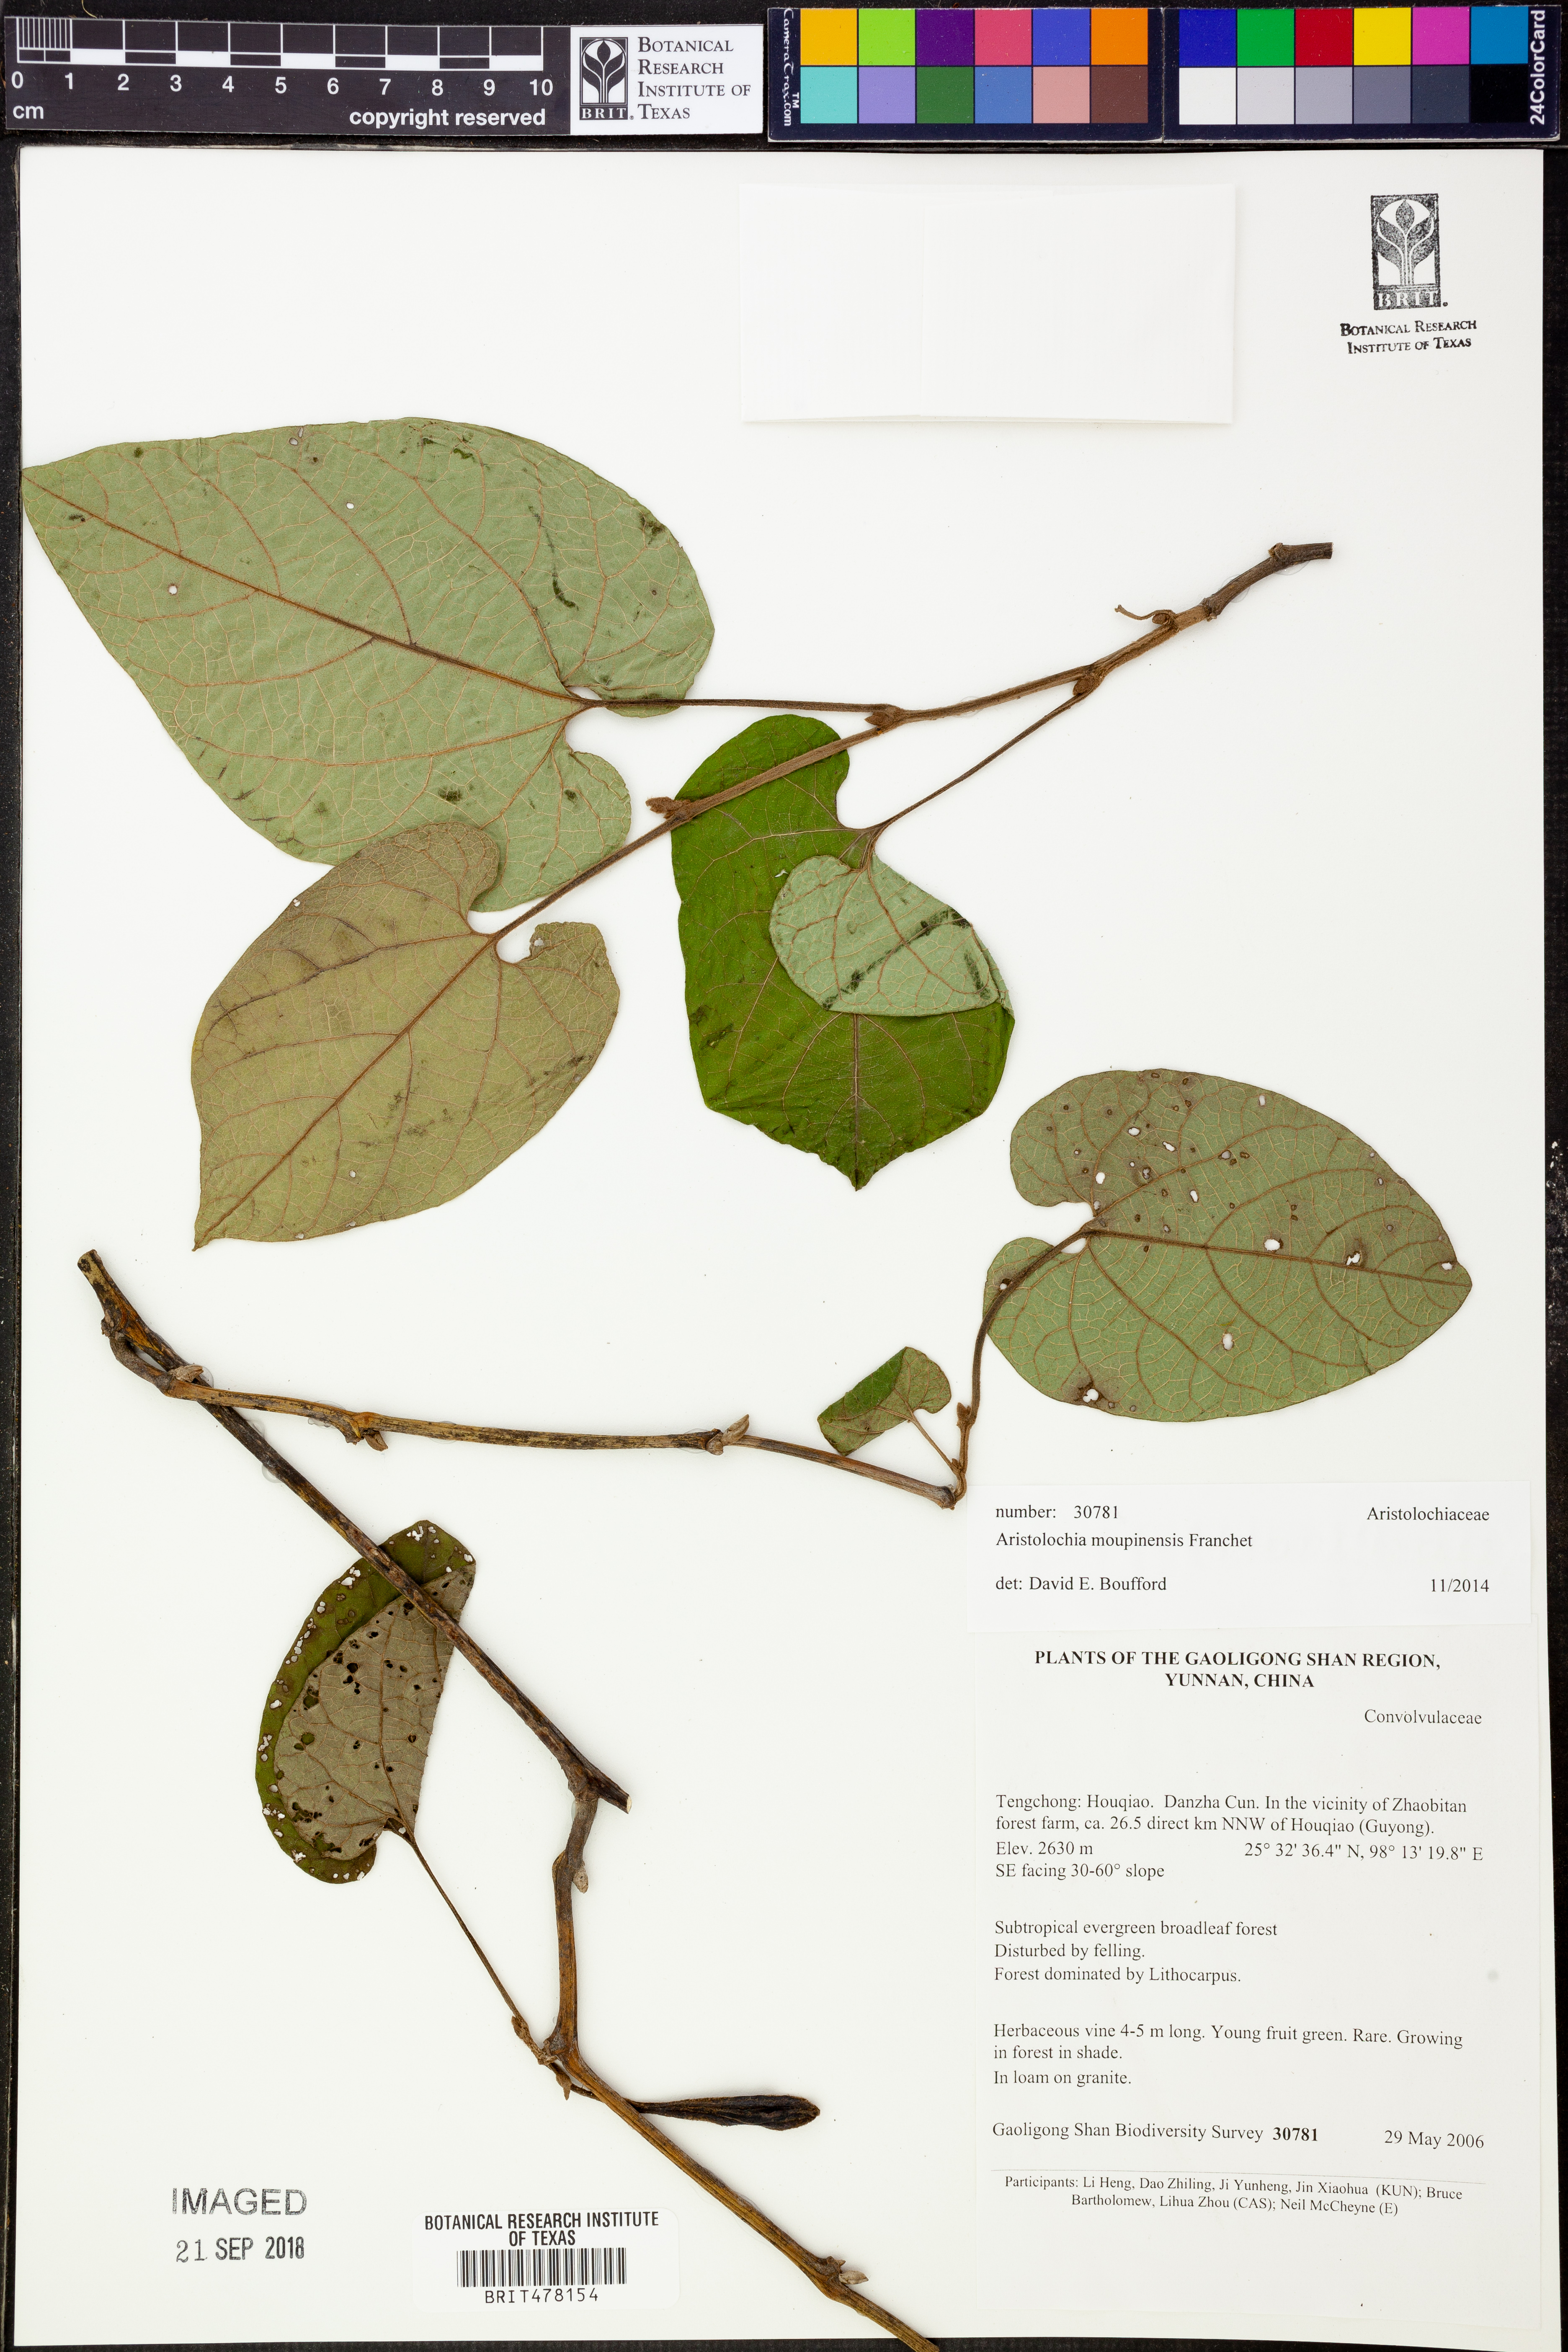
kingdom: Plantae
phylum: Tracheophyta
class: Magnoliopsida
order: Piperales
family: Aristolochiaceae
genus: Isotrema
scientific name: Isotrema moupinense
